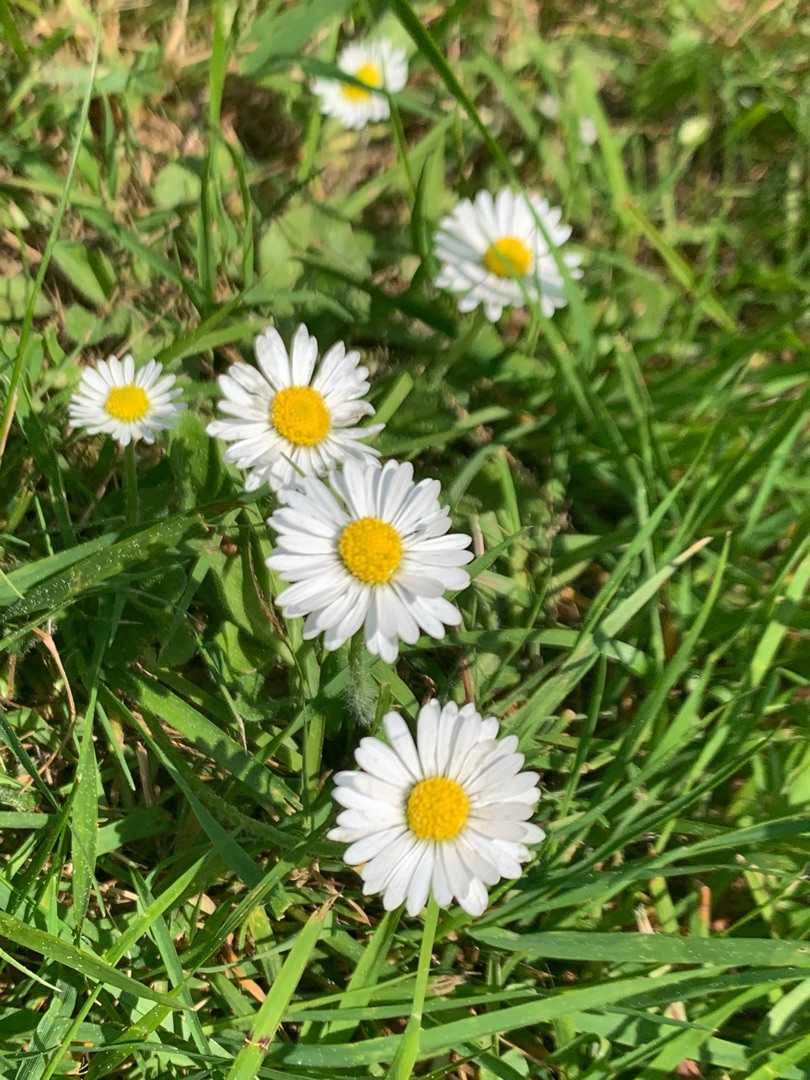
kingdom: Plantae
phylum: Tracheophyta
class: Magnoliopsida
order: Asterales
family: Asteraceae
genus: Bellis
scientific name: Bellis perennis
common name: Tusindfryd
